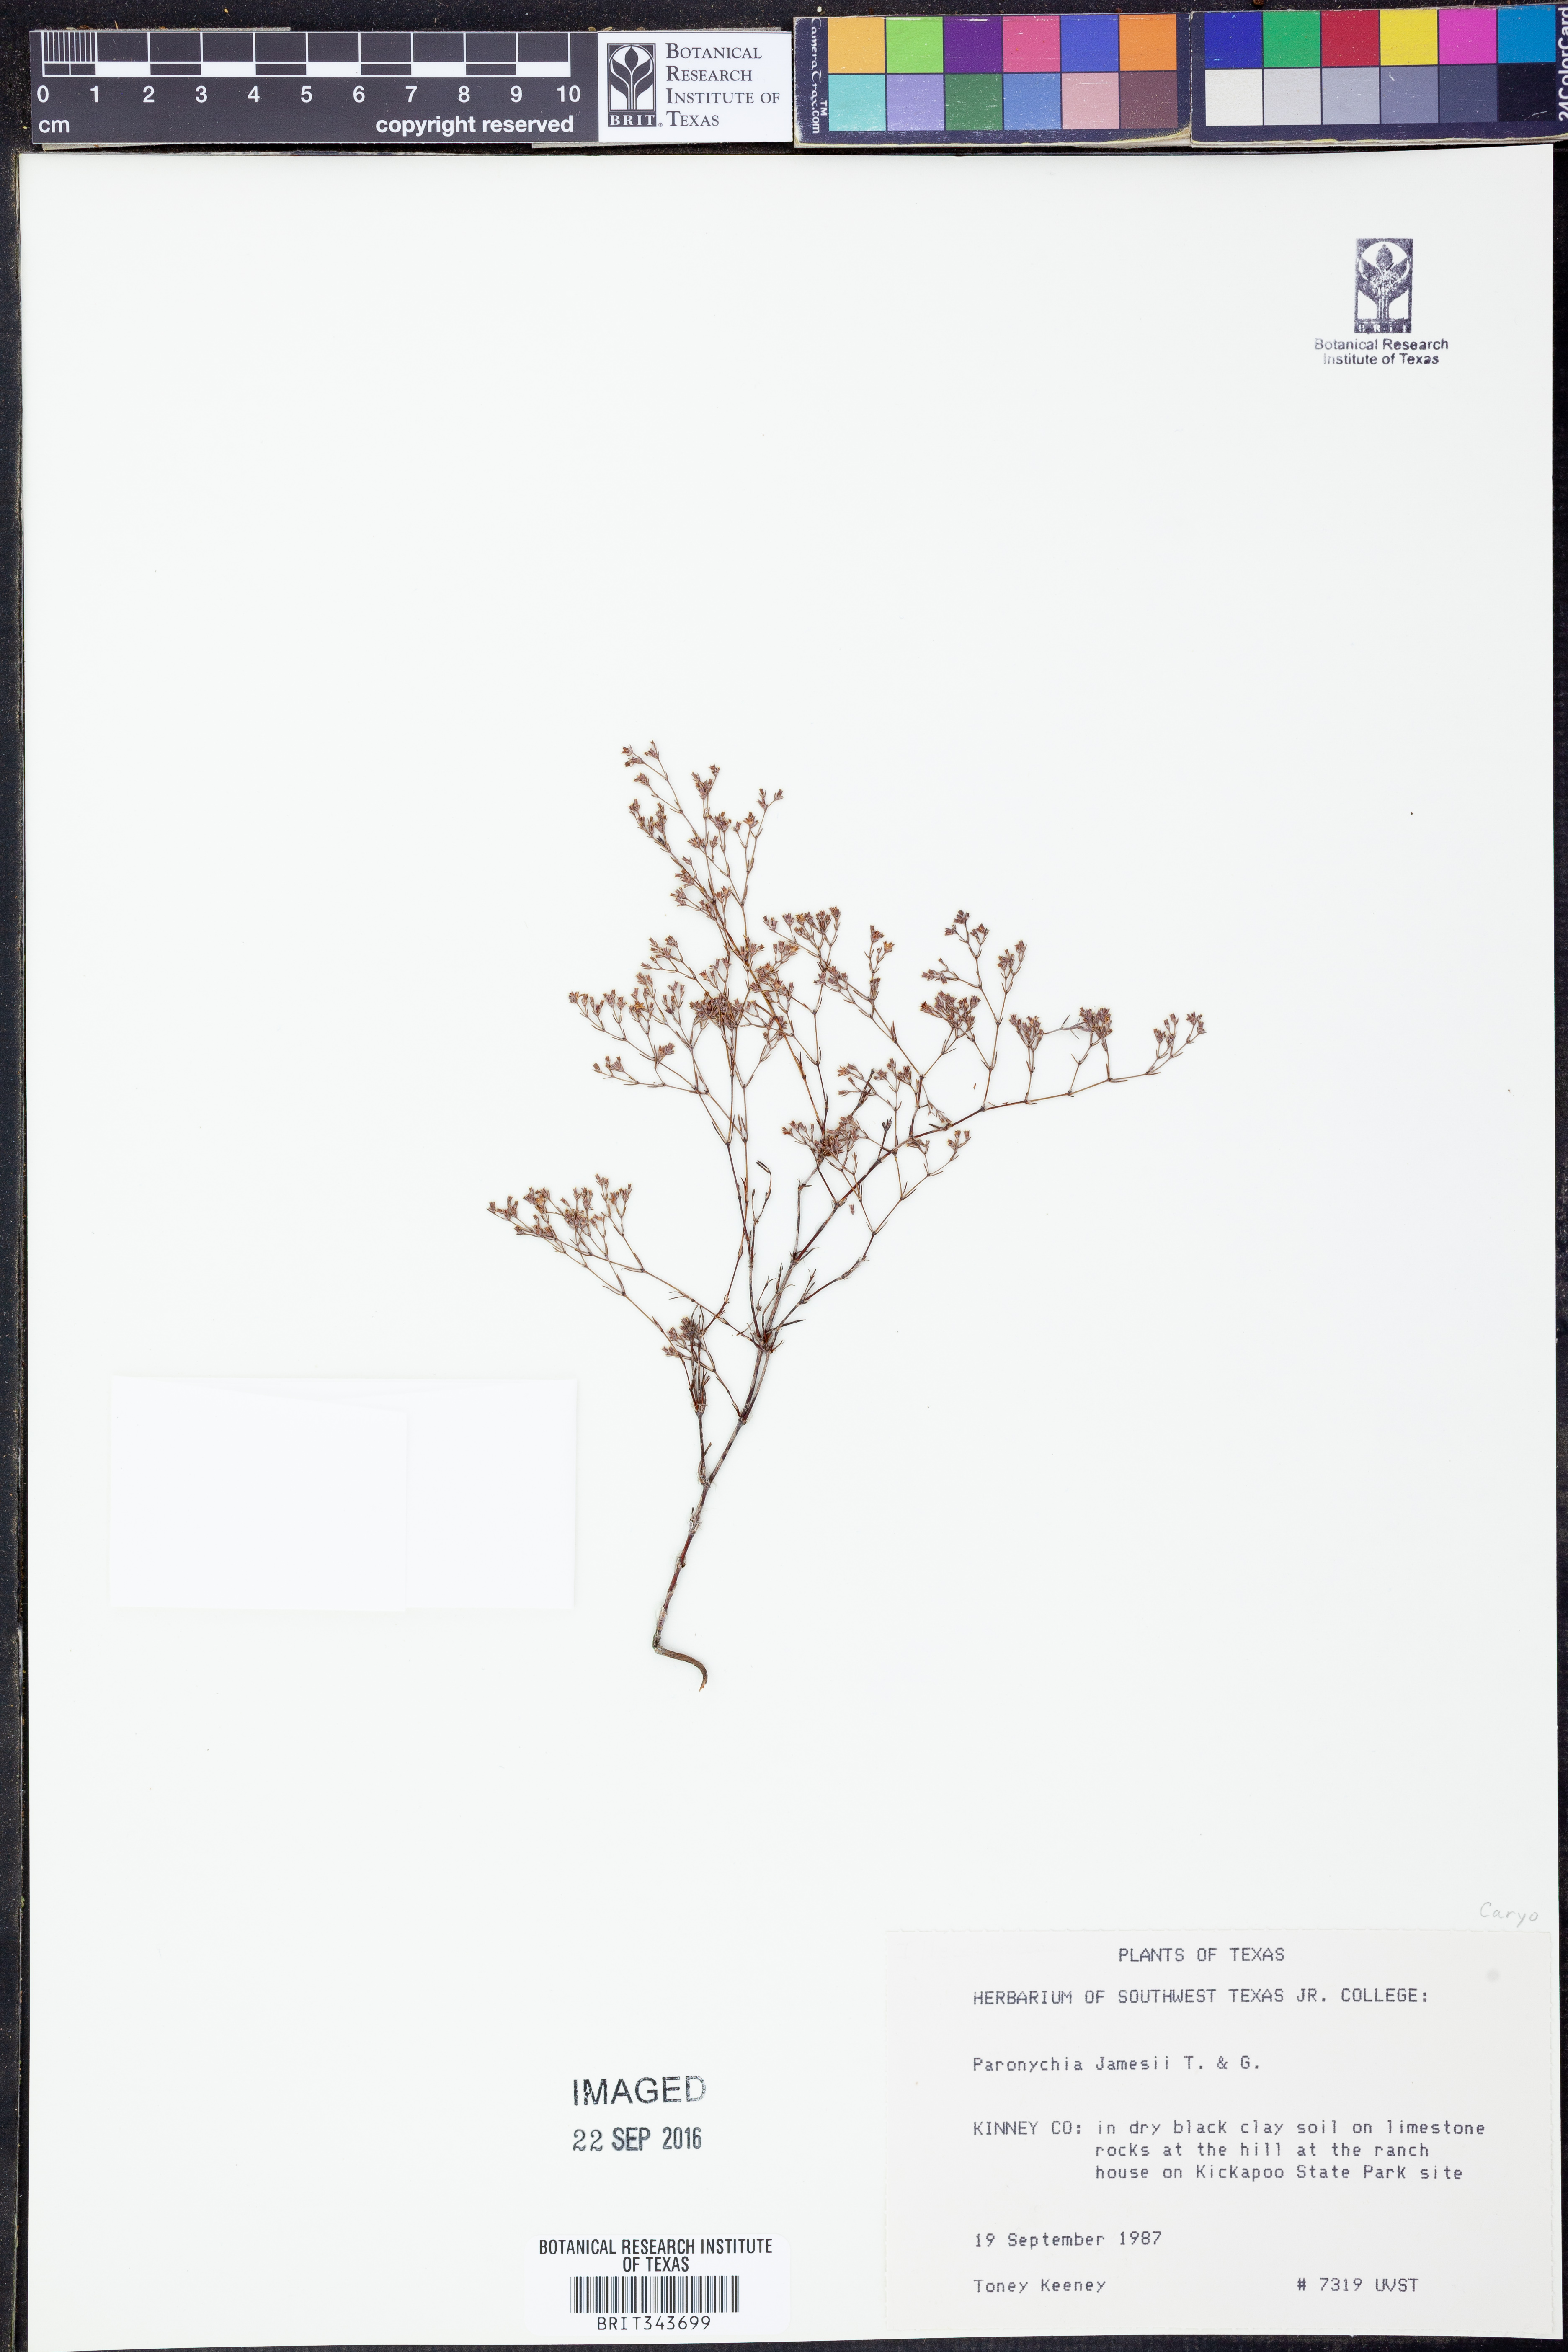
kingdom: Plantae
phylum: Tracheophyta
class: Magnoliopsida
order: Caryophyllales
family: Caryophyllaceae
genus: Paronychia
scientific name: Paronychia jamesii
